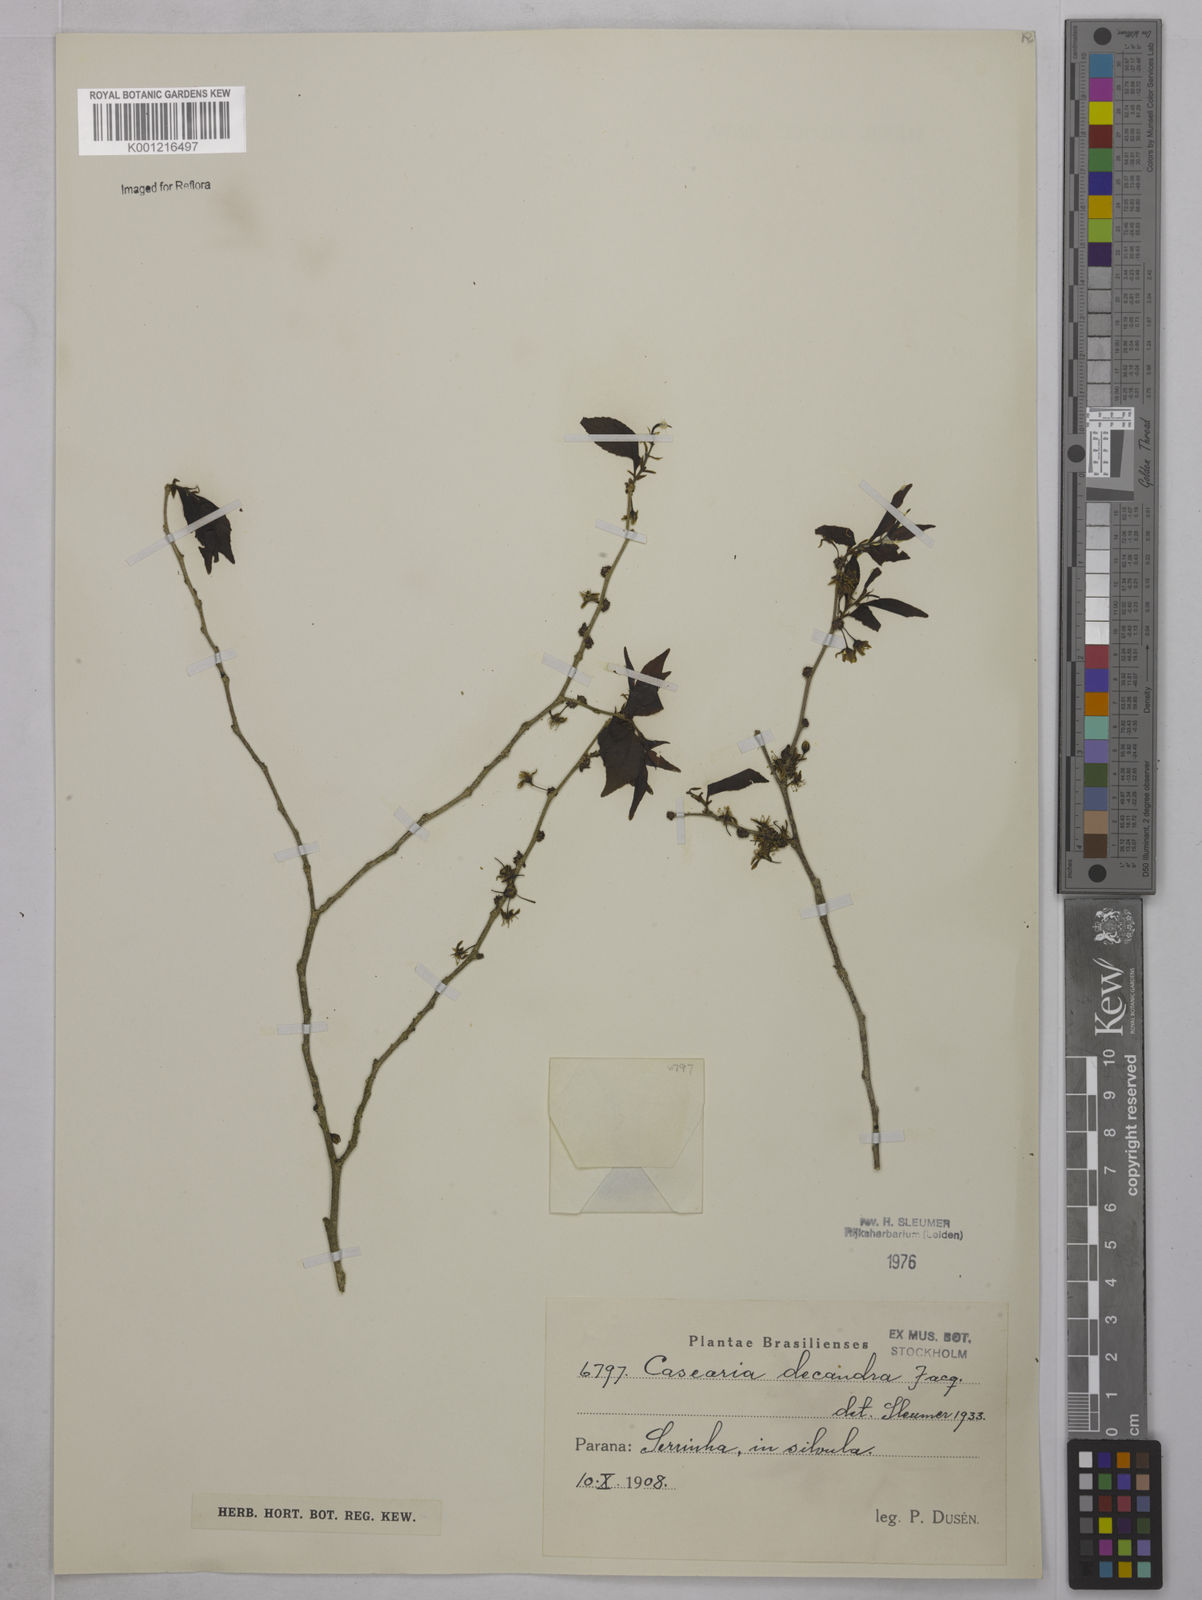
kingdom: Plantae
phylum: Tracheophyta
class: Magnoliopsida
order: Malpighiales
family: Salicaceae
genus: Casearia
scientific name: Casearia decandra
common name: Crack open
